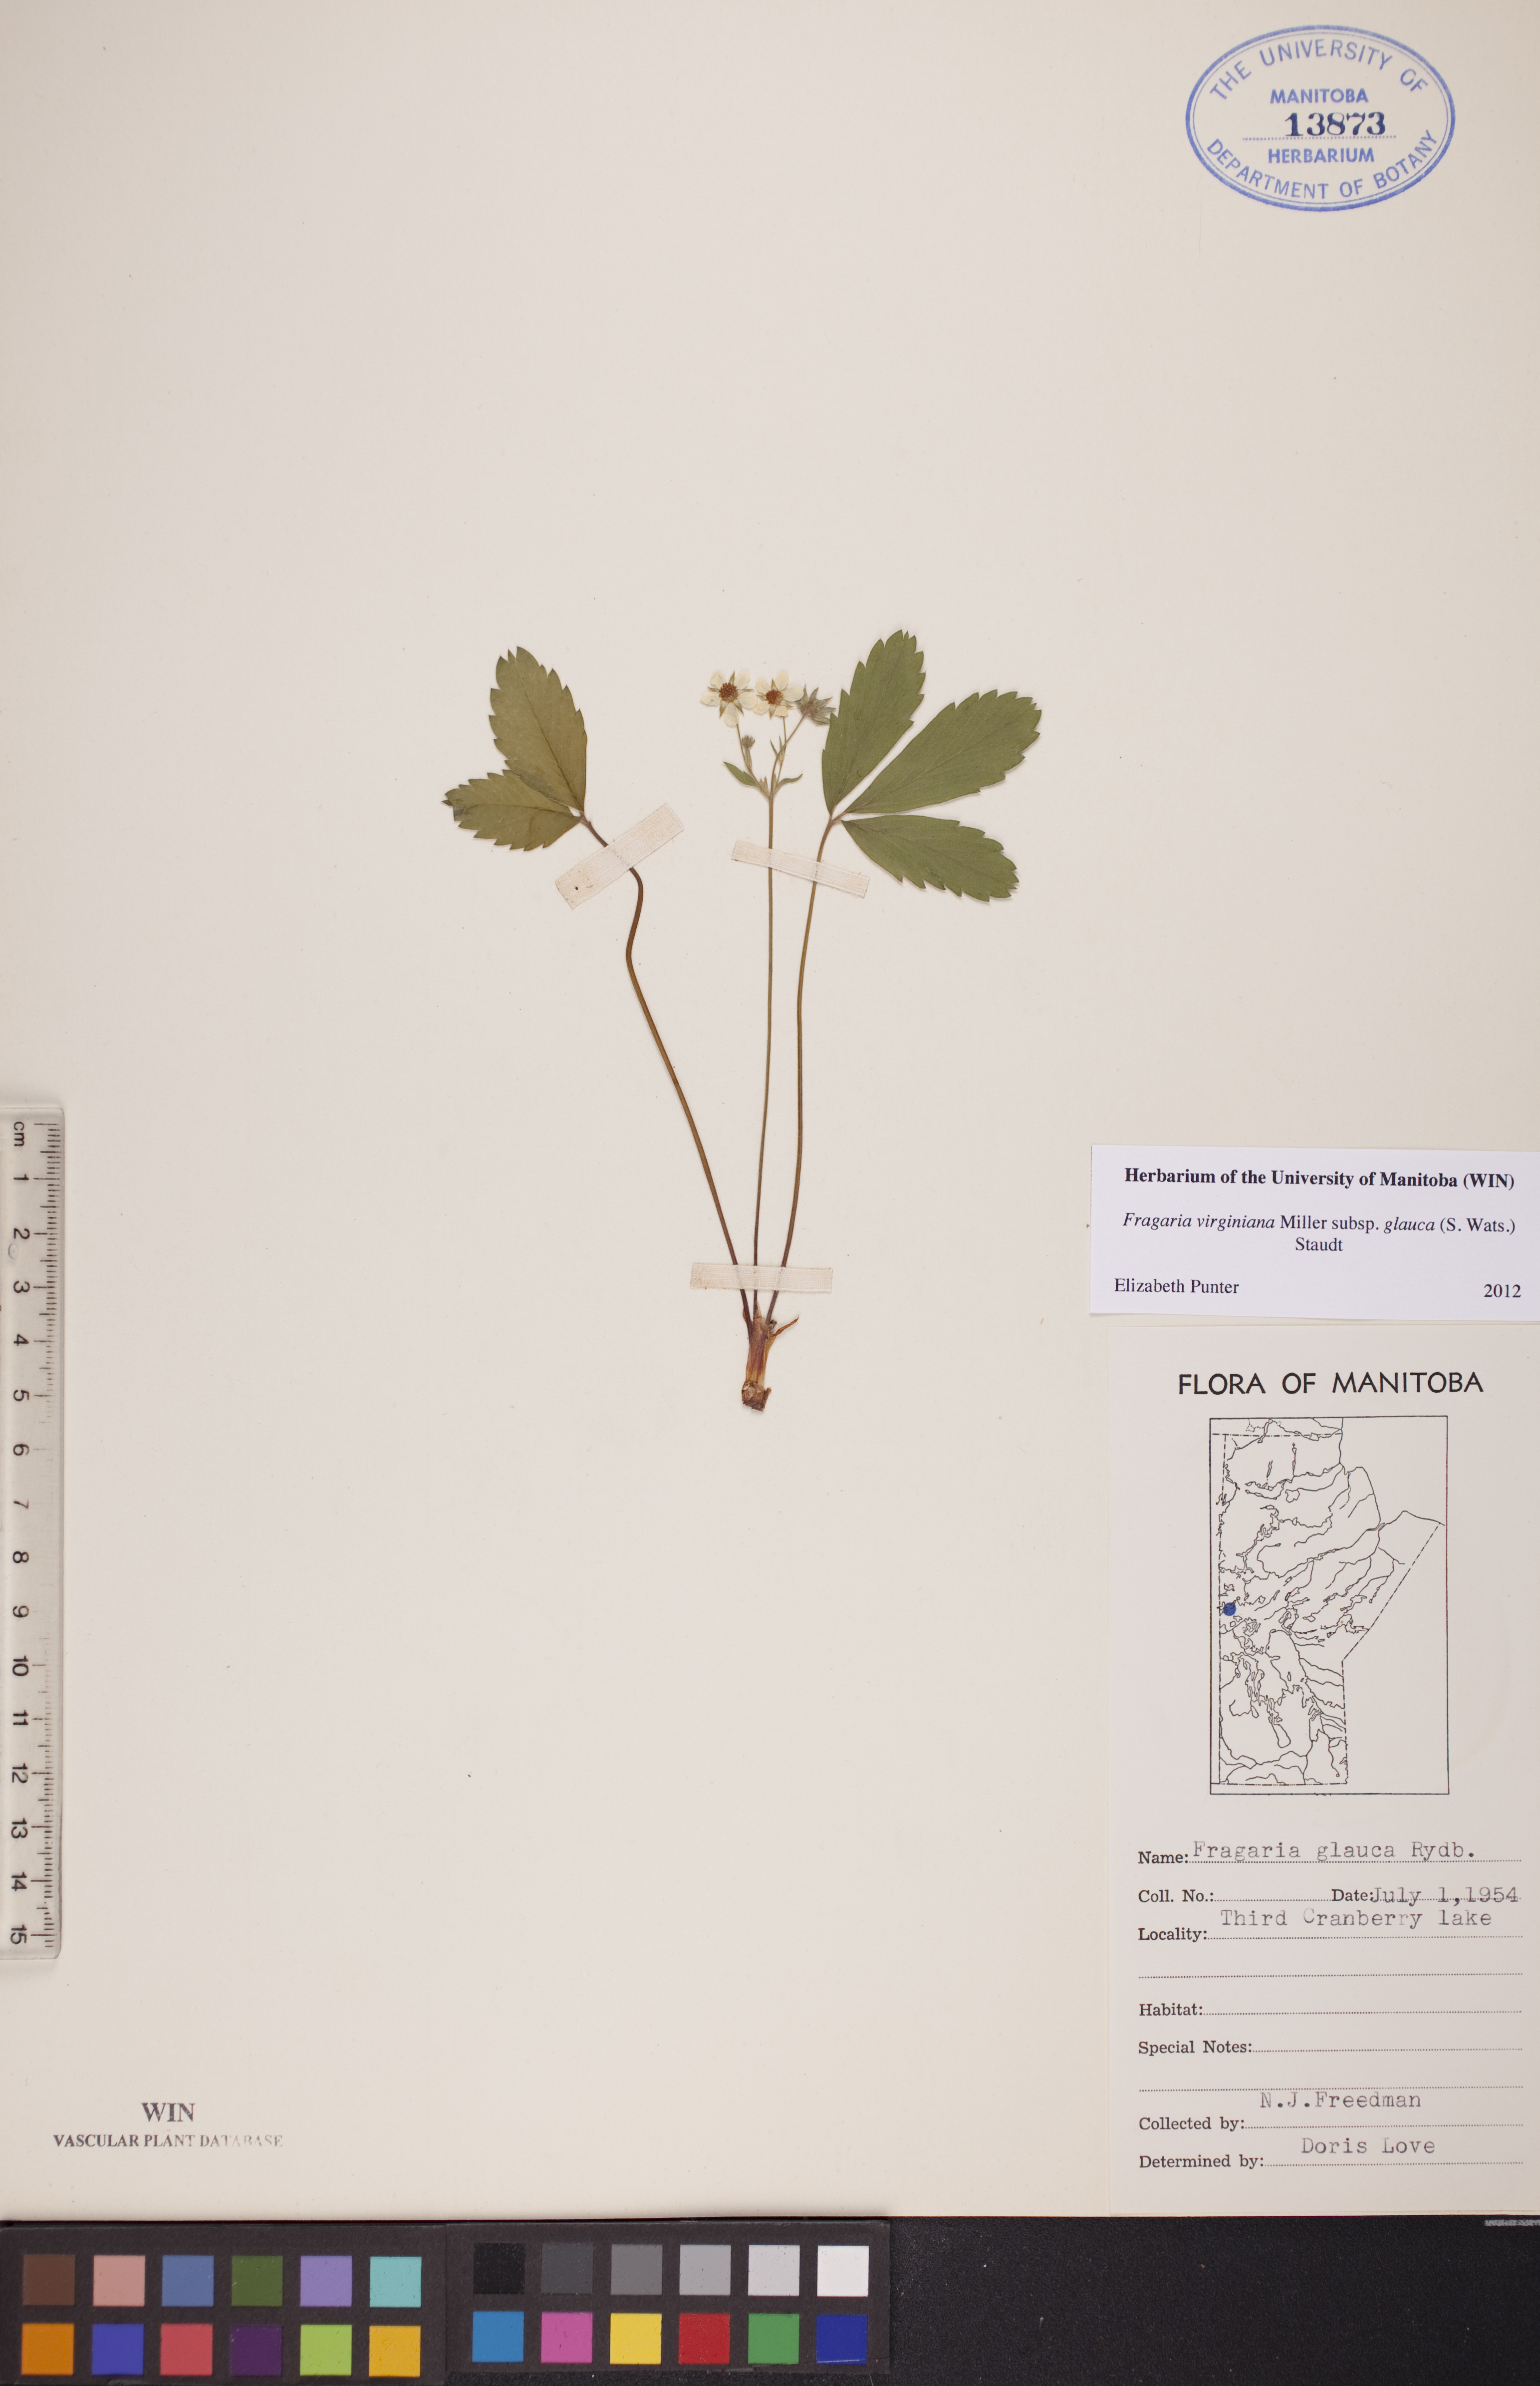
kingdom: Plantae
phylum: Tracheophyta
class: Magnoliopsida
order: Rosales
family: Rosaceae
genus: Fragaria
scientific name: Fragaria virginiana
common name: Thickleaved wild strawberry
